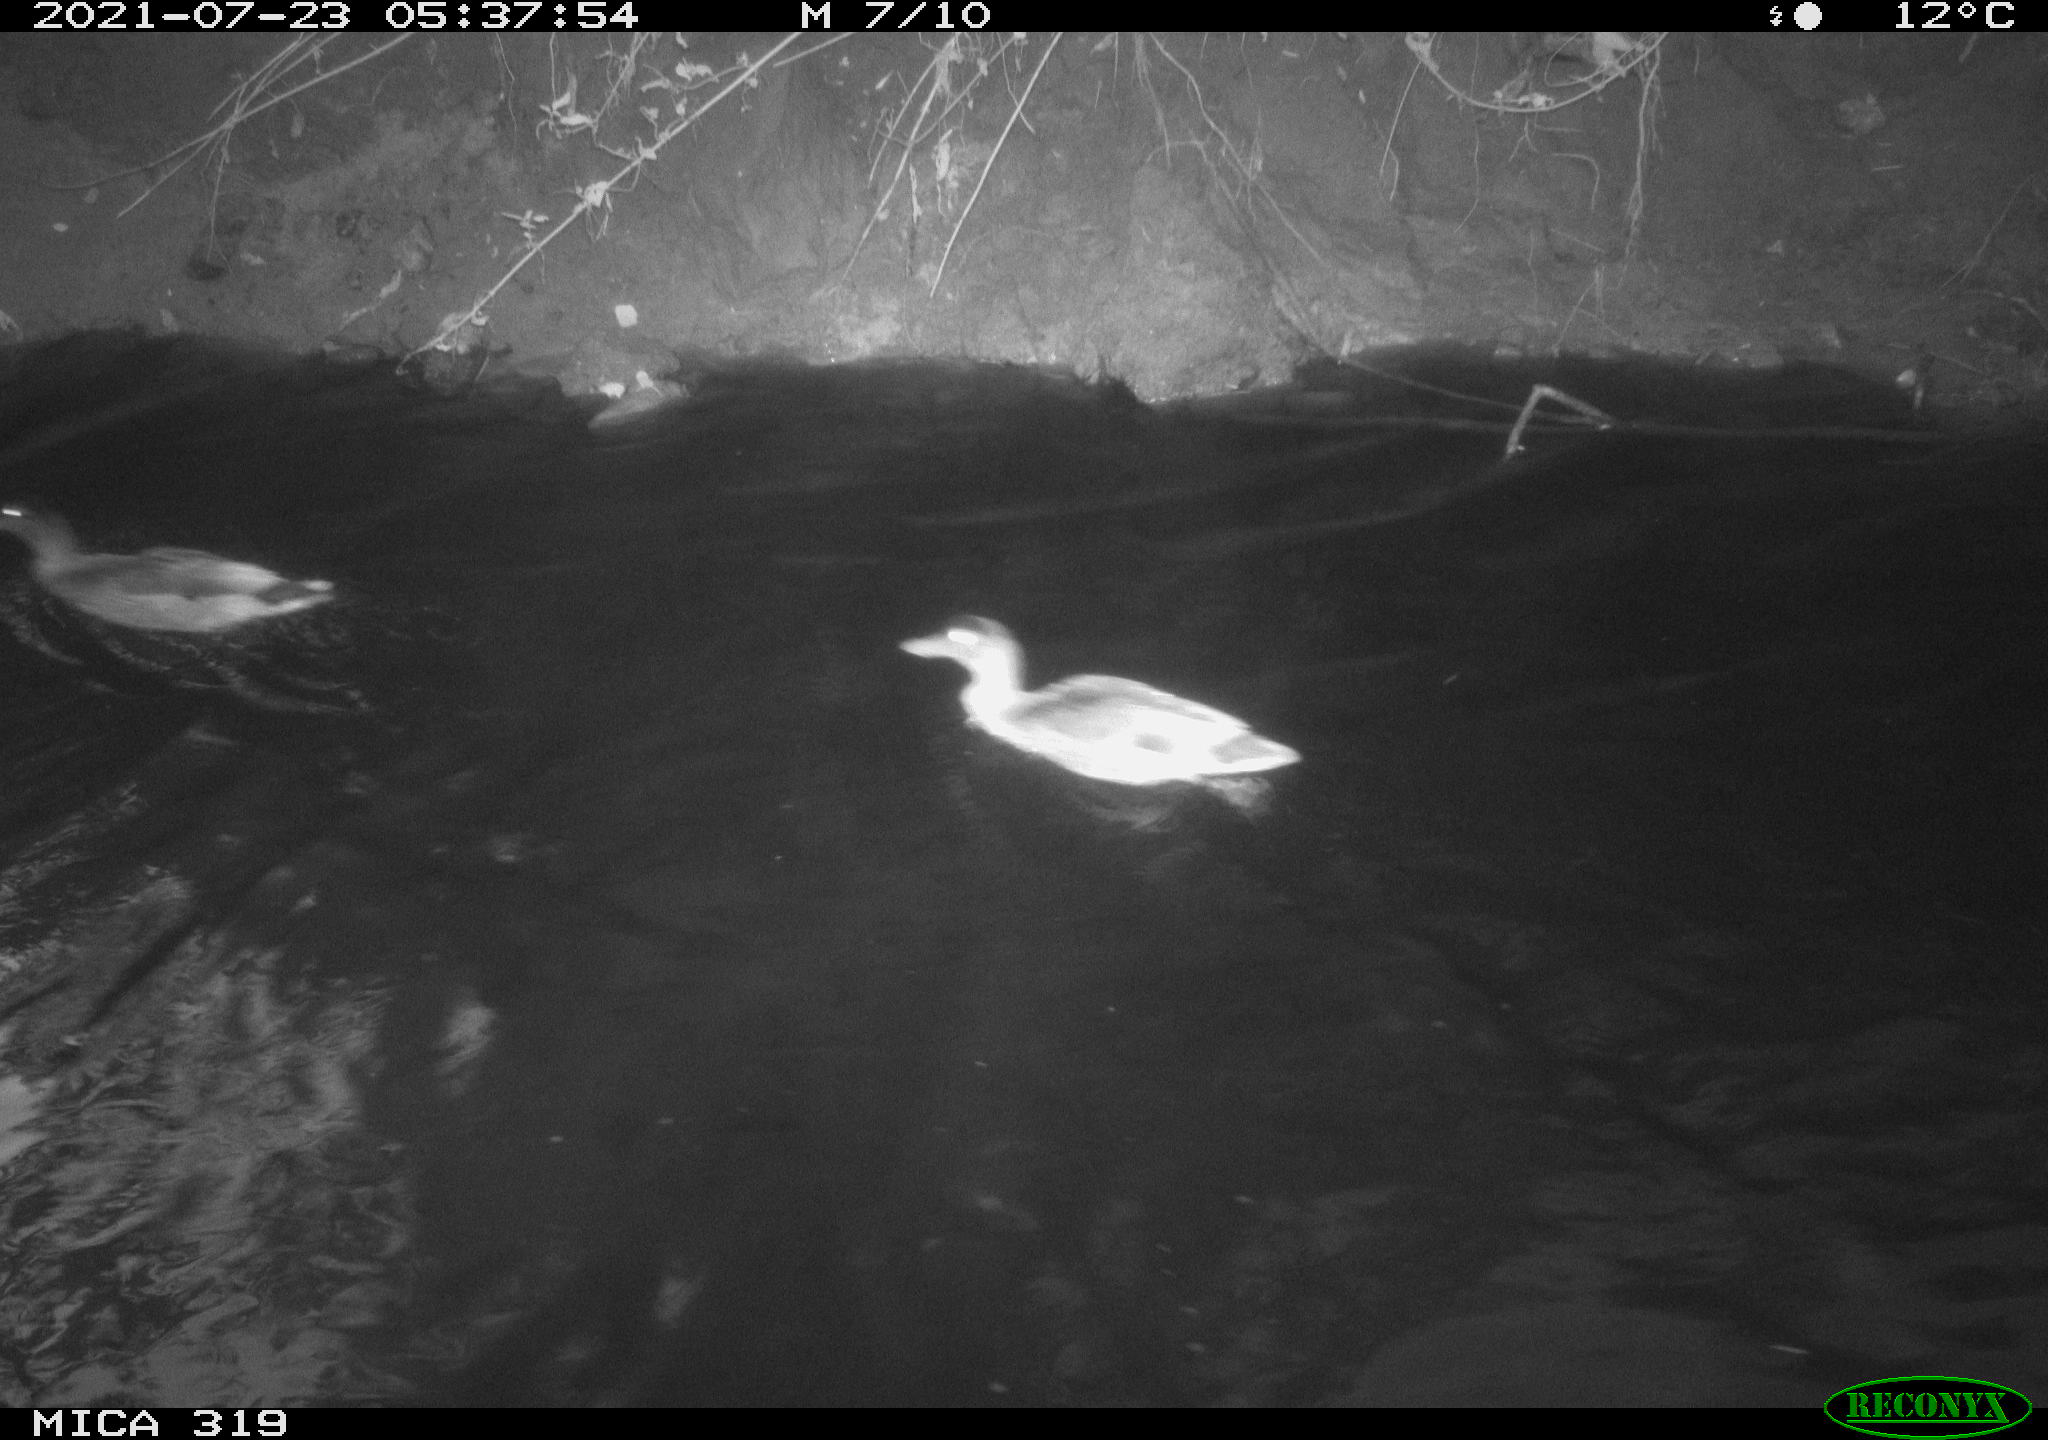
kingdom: Animalia
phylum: Chordata
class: Aves
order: Anseriformes
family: Anatidae
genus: Anas
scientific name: Anas platyrhynchos
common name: Mallard
